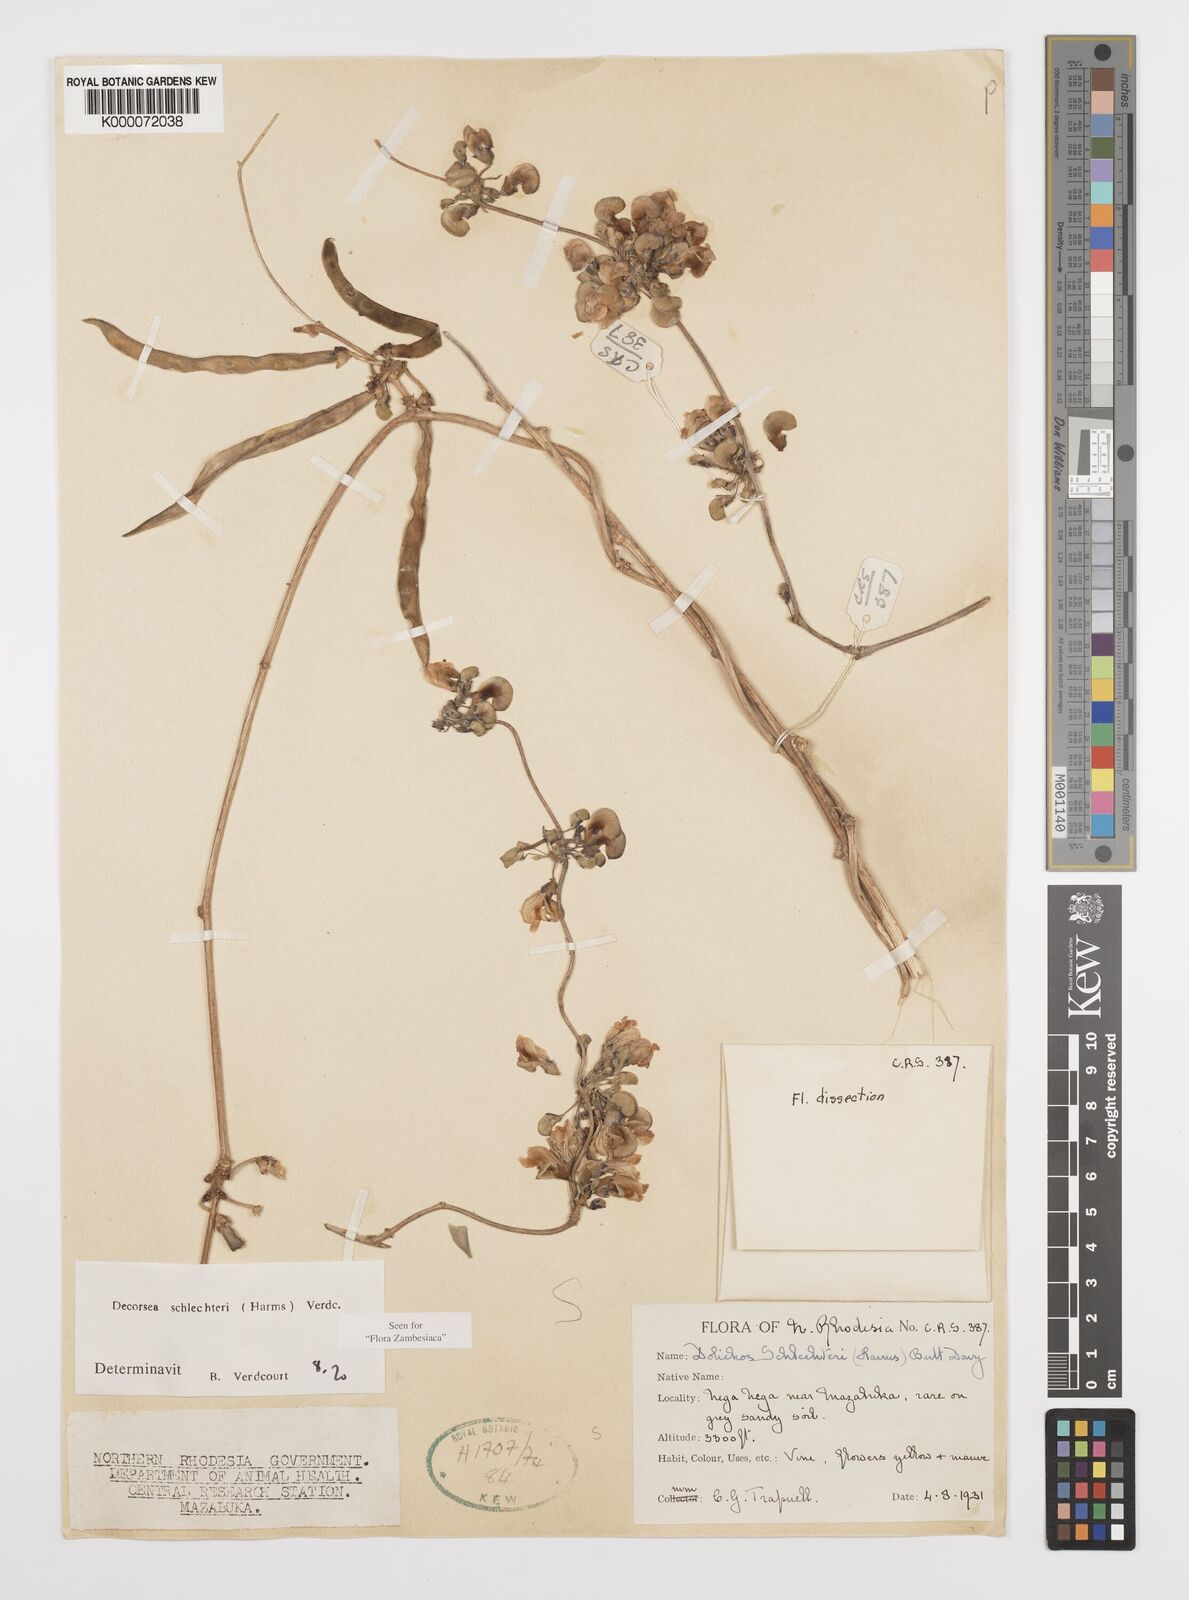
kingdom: Plantae
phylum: Tracheophyta
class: Magnoliopsida
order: Fabales
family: Fabaceae
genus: Decorsea
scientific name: Decorsea schlechteri
